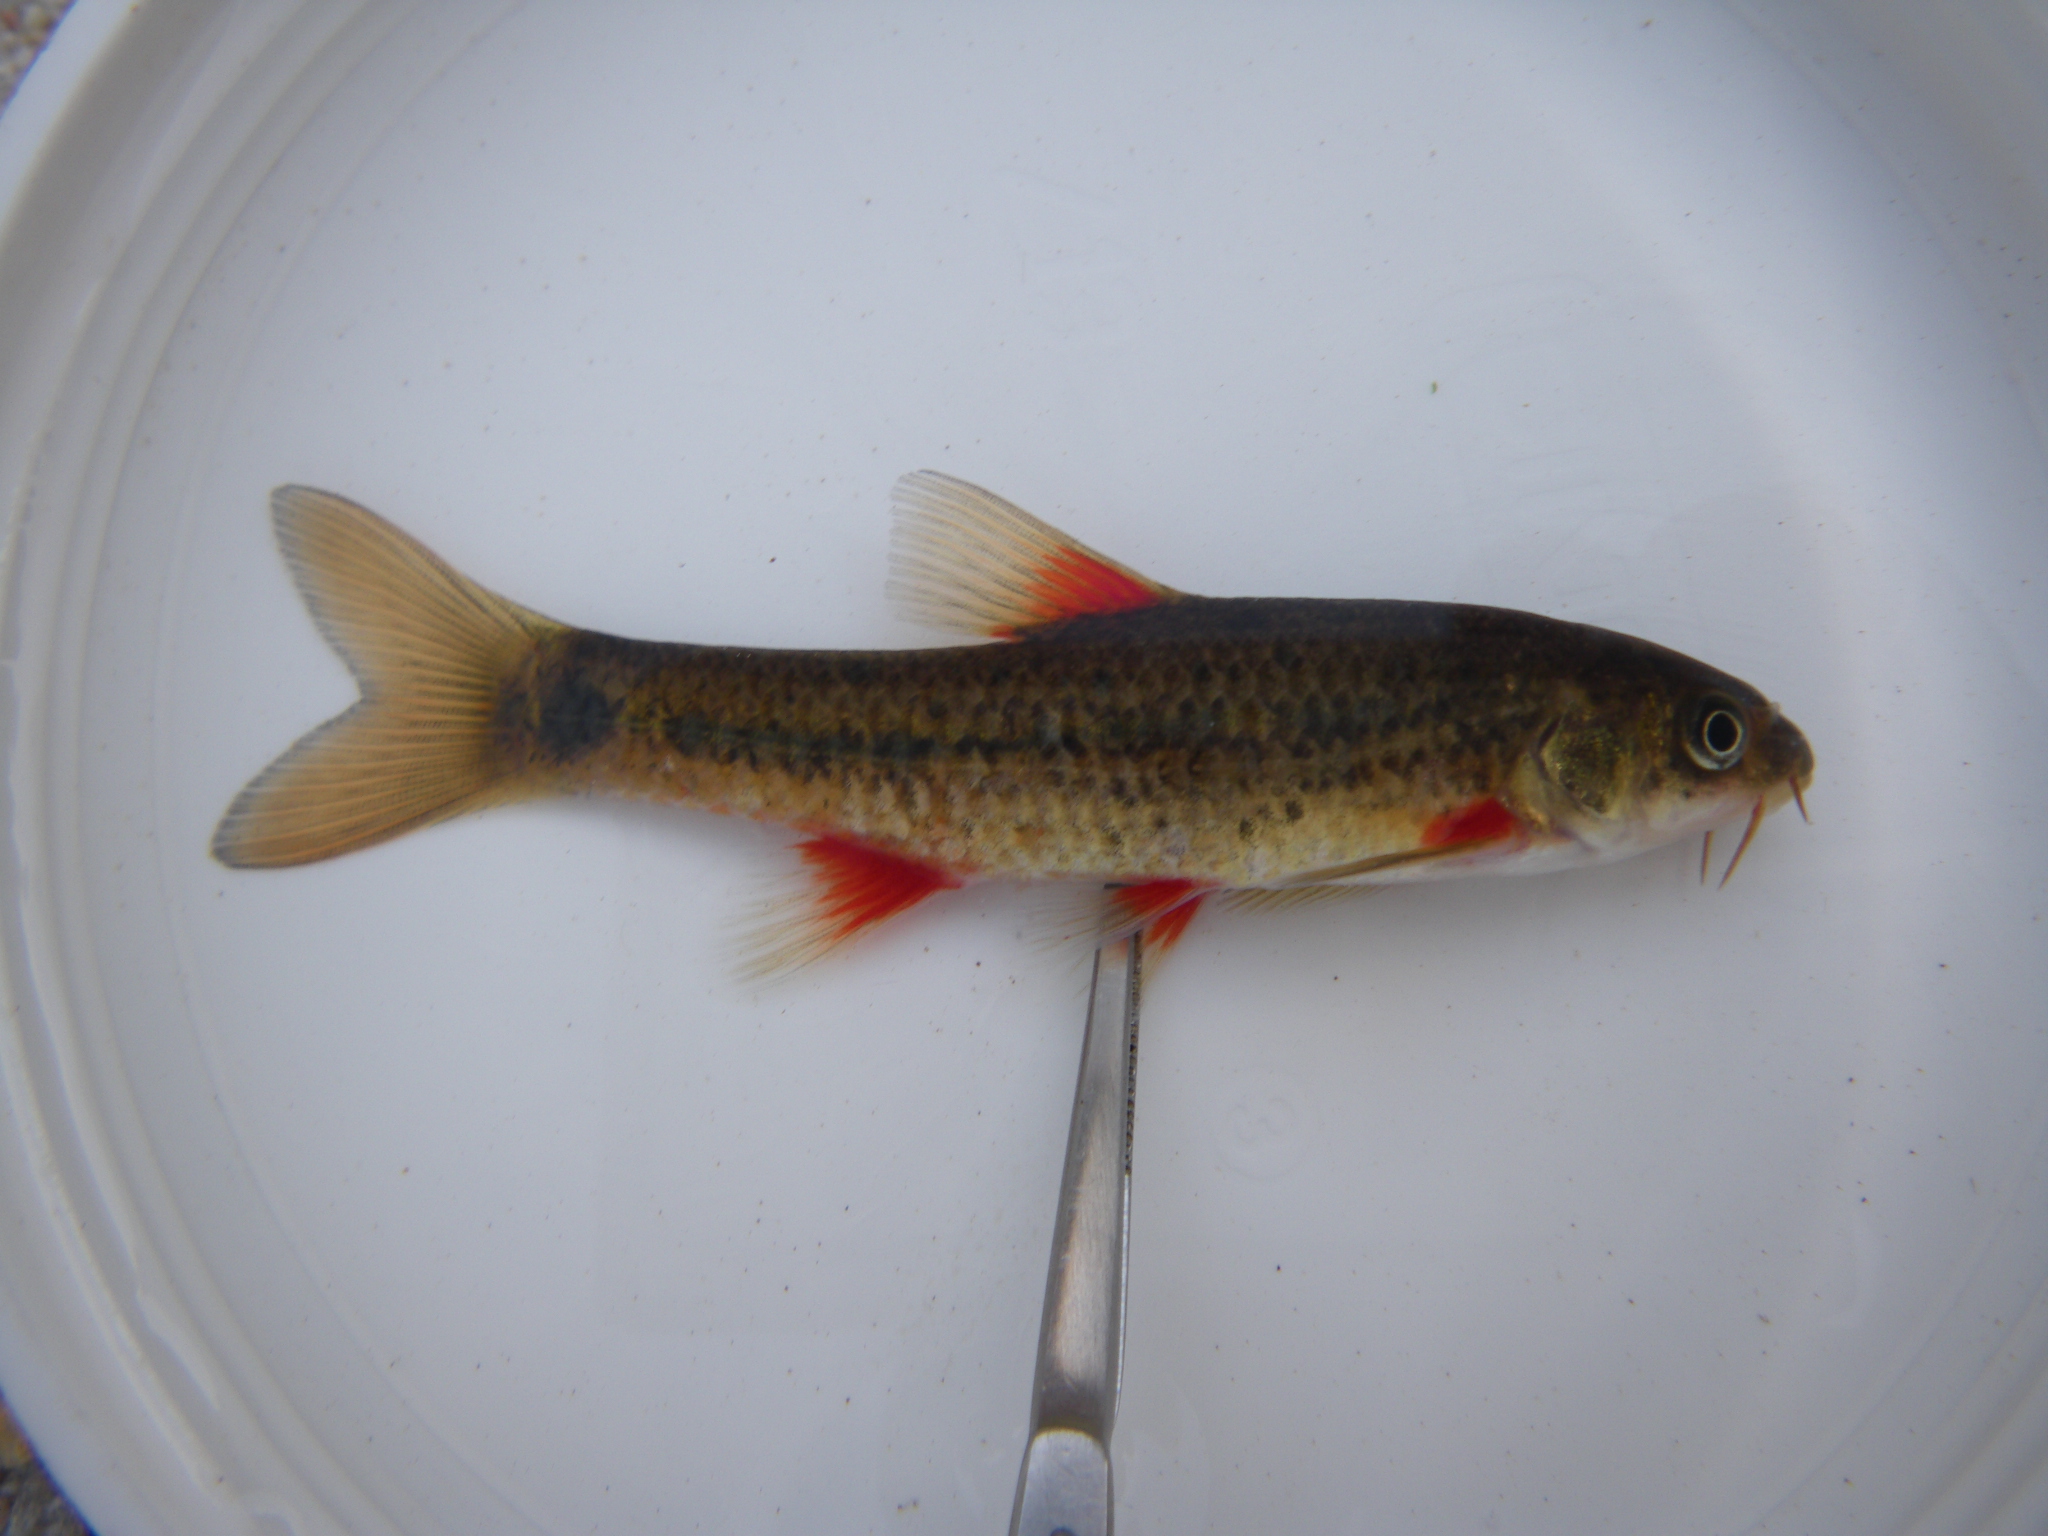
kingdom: Animalia
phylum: Chordata
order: Cypriniformes
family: Cyprinidae
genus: Pseudobarbus
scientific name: Pseudobarbus burchelli
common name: Burchell's redfin
